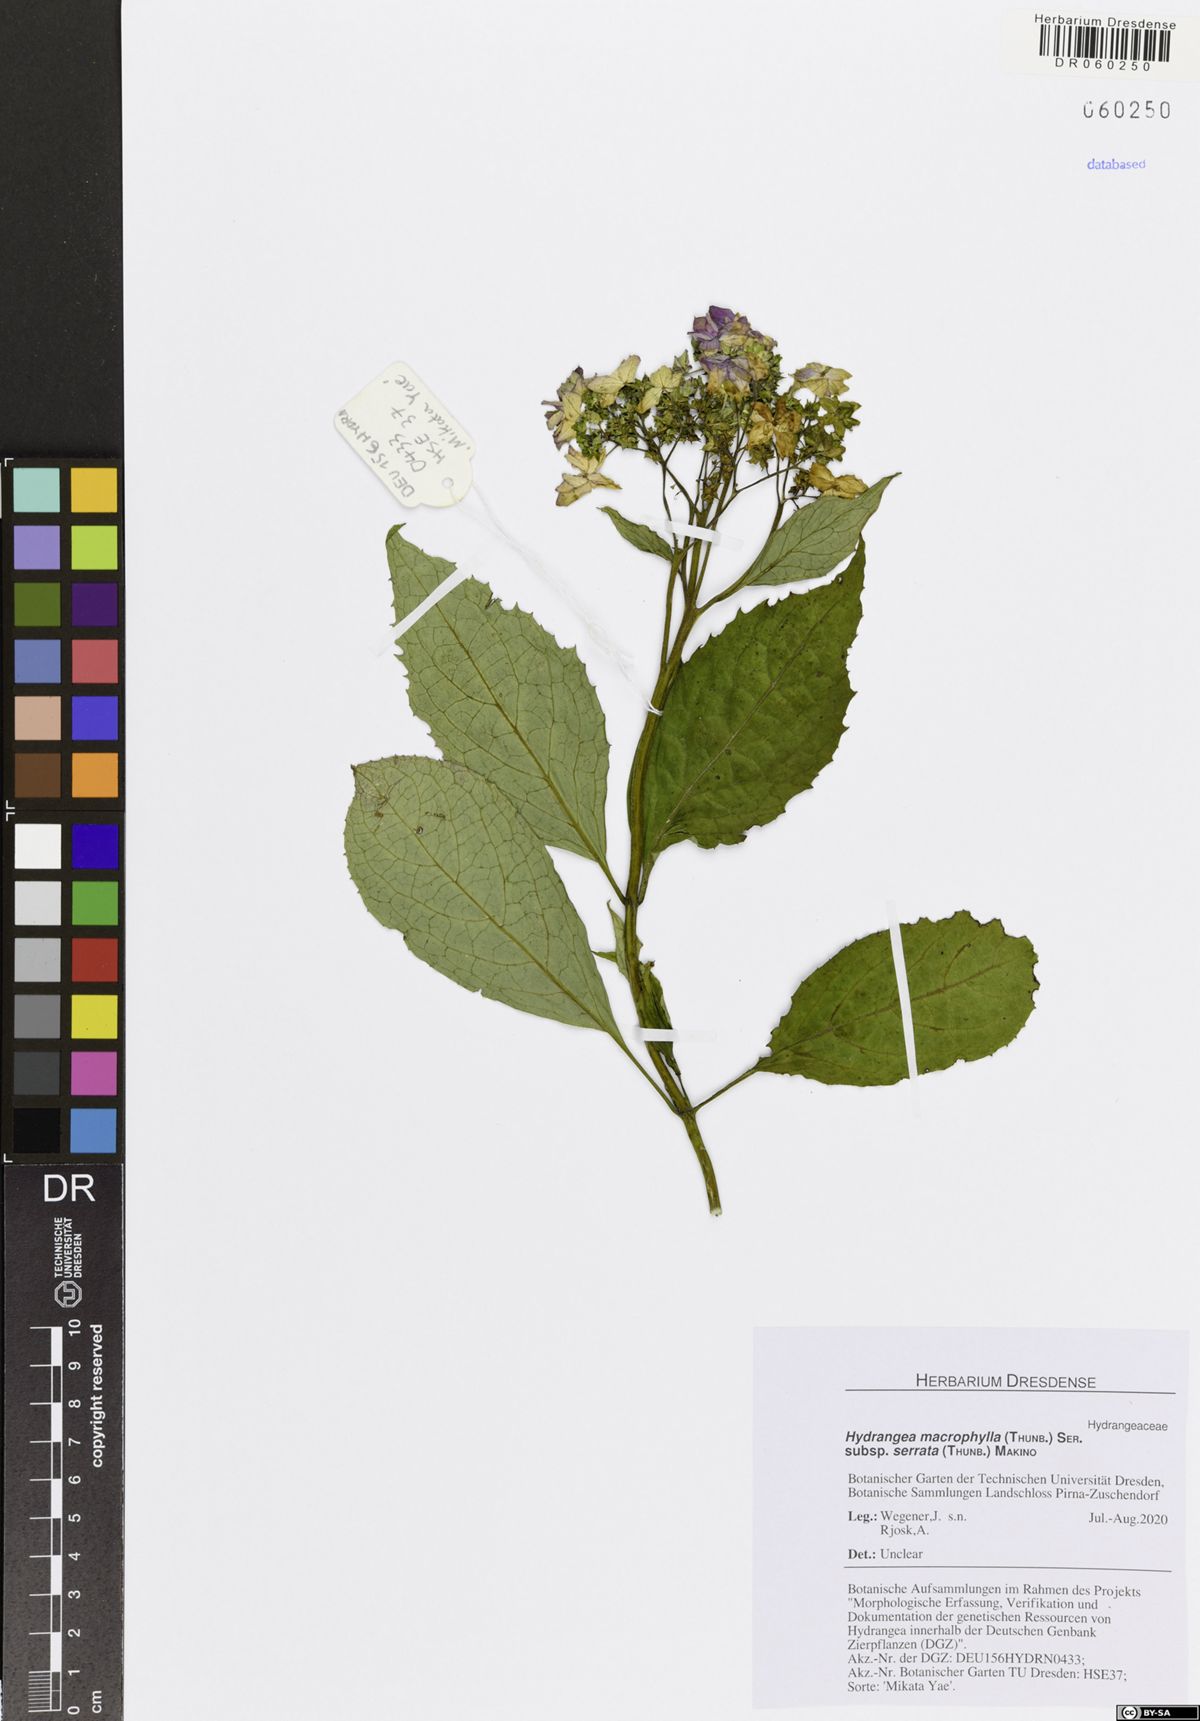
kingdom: Plantae
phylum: Tracheophyta
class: Magnoliopsida
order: Cornales
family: Hydrangeaceae
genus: Hydrangea
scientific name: Hydrangea serrata
